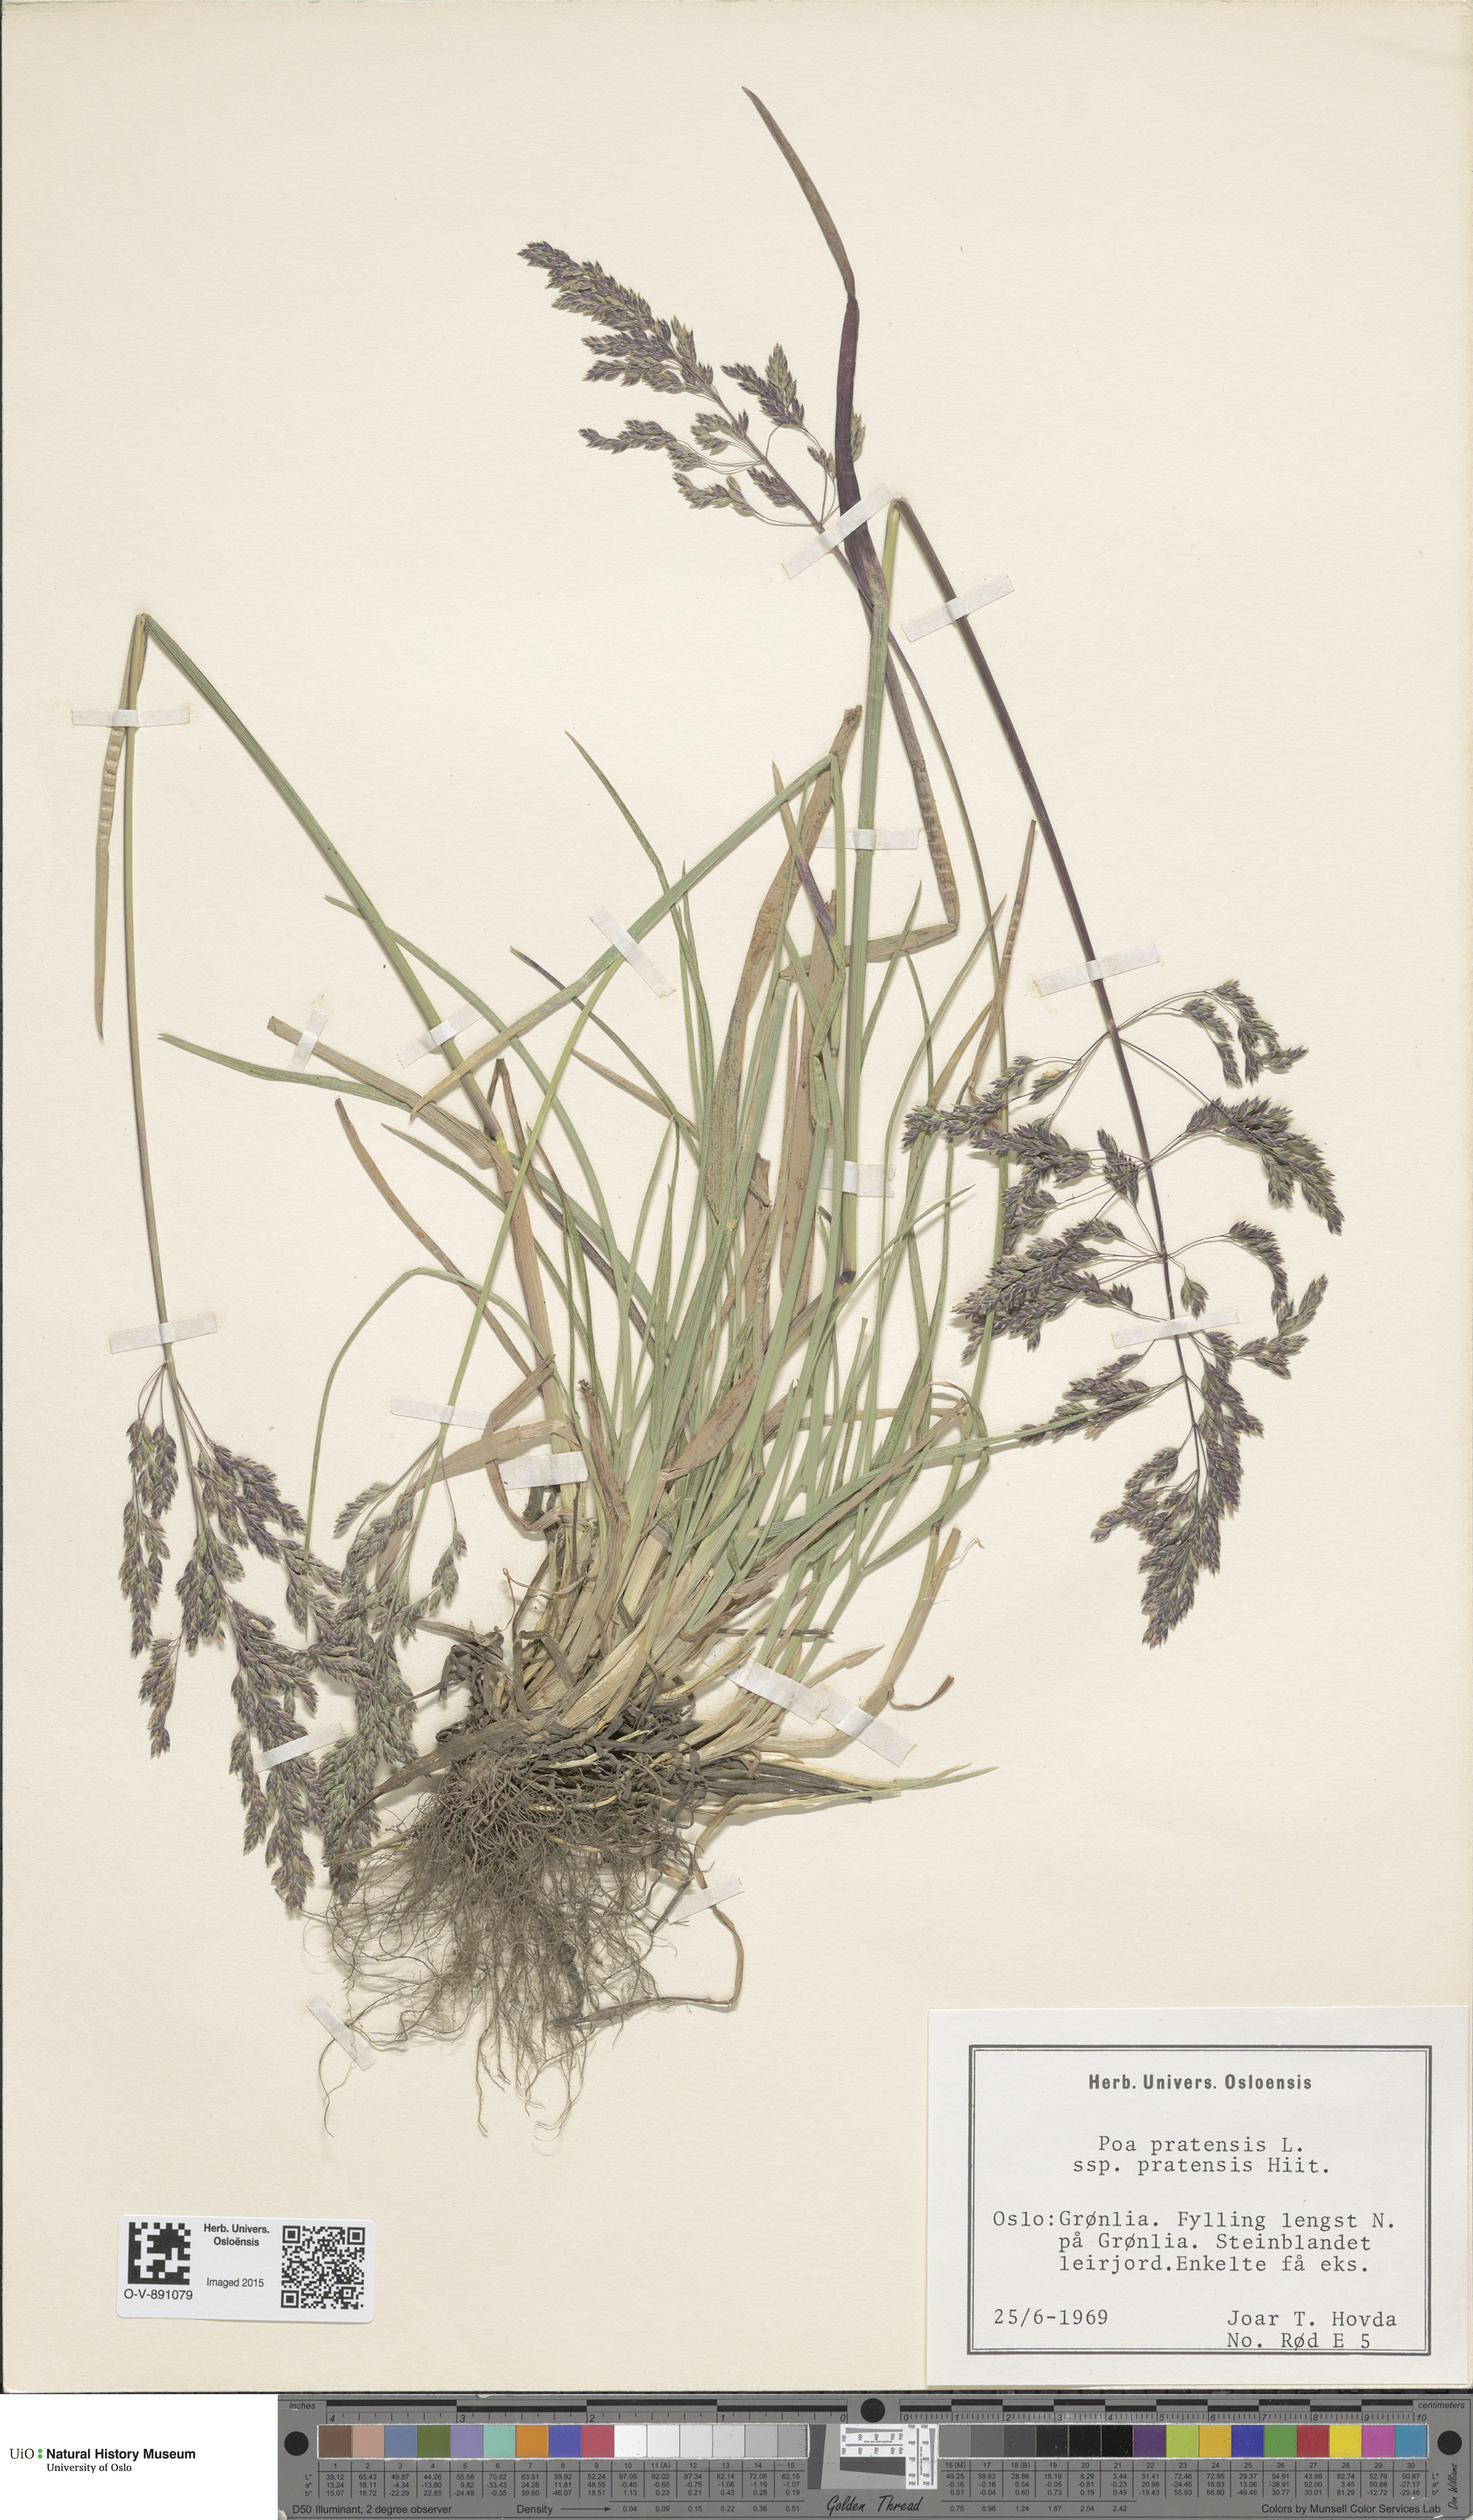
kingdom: Plantae
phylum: Tracheophyta
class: Liliopsida
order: Poales
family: Poaceae
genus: Poa
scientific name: Poa pratensis
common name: Kentucky bluegrass
